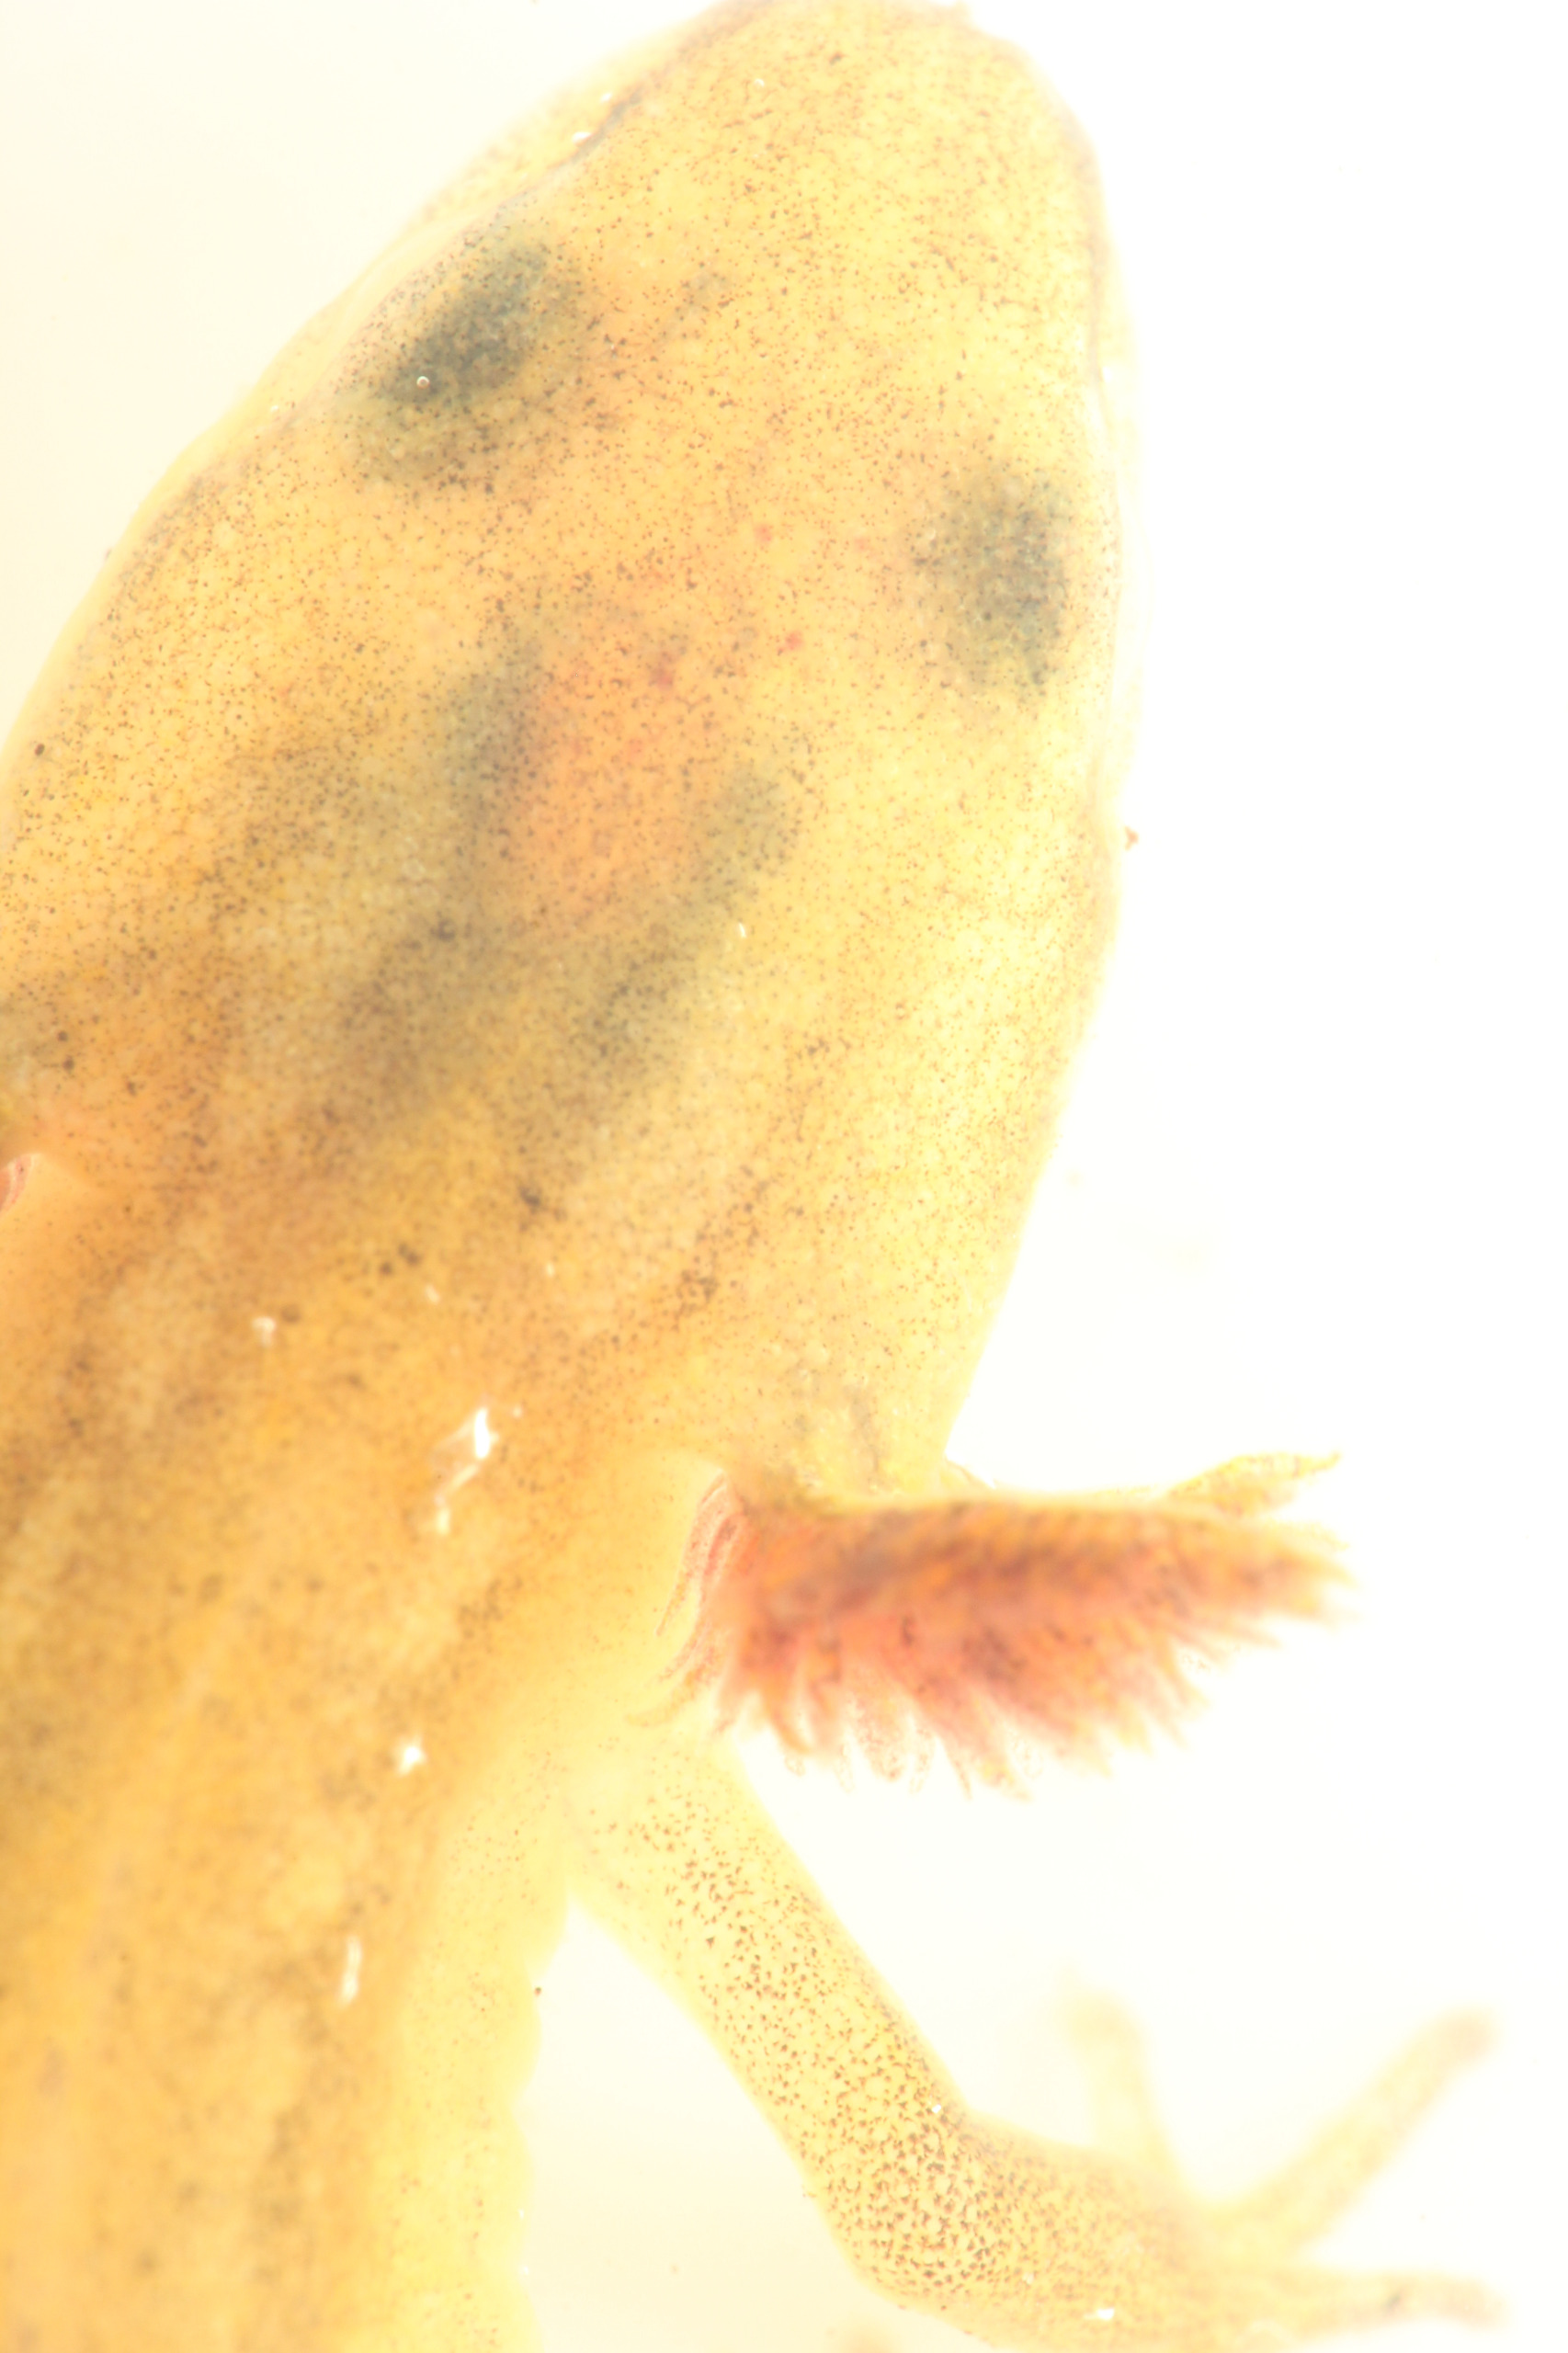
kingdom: Animalia
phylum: Chordata
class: Amphibia
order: Caudata
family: Salamandridae
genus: Lissotriton
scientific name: Lissotriton vulgaris
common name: Lille vandsalamander
